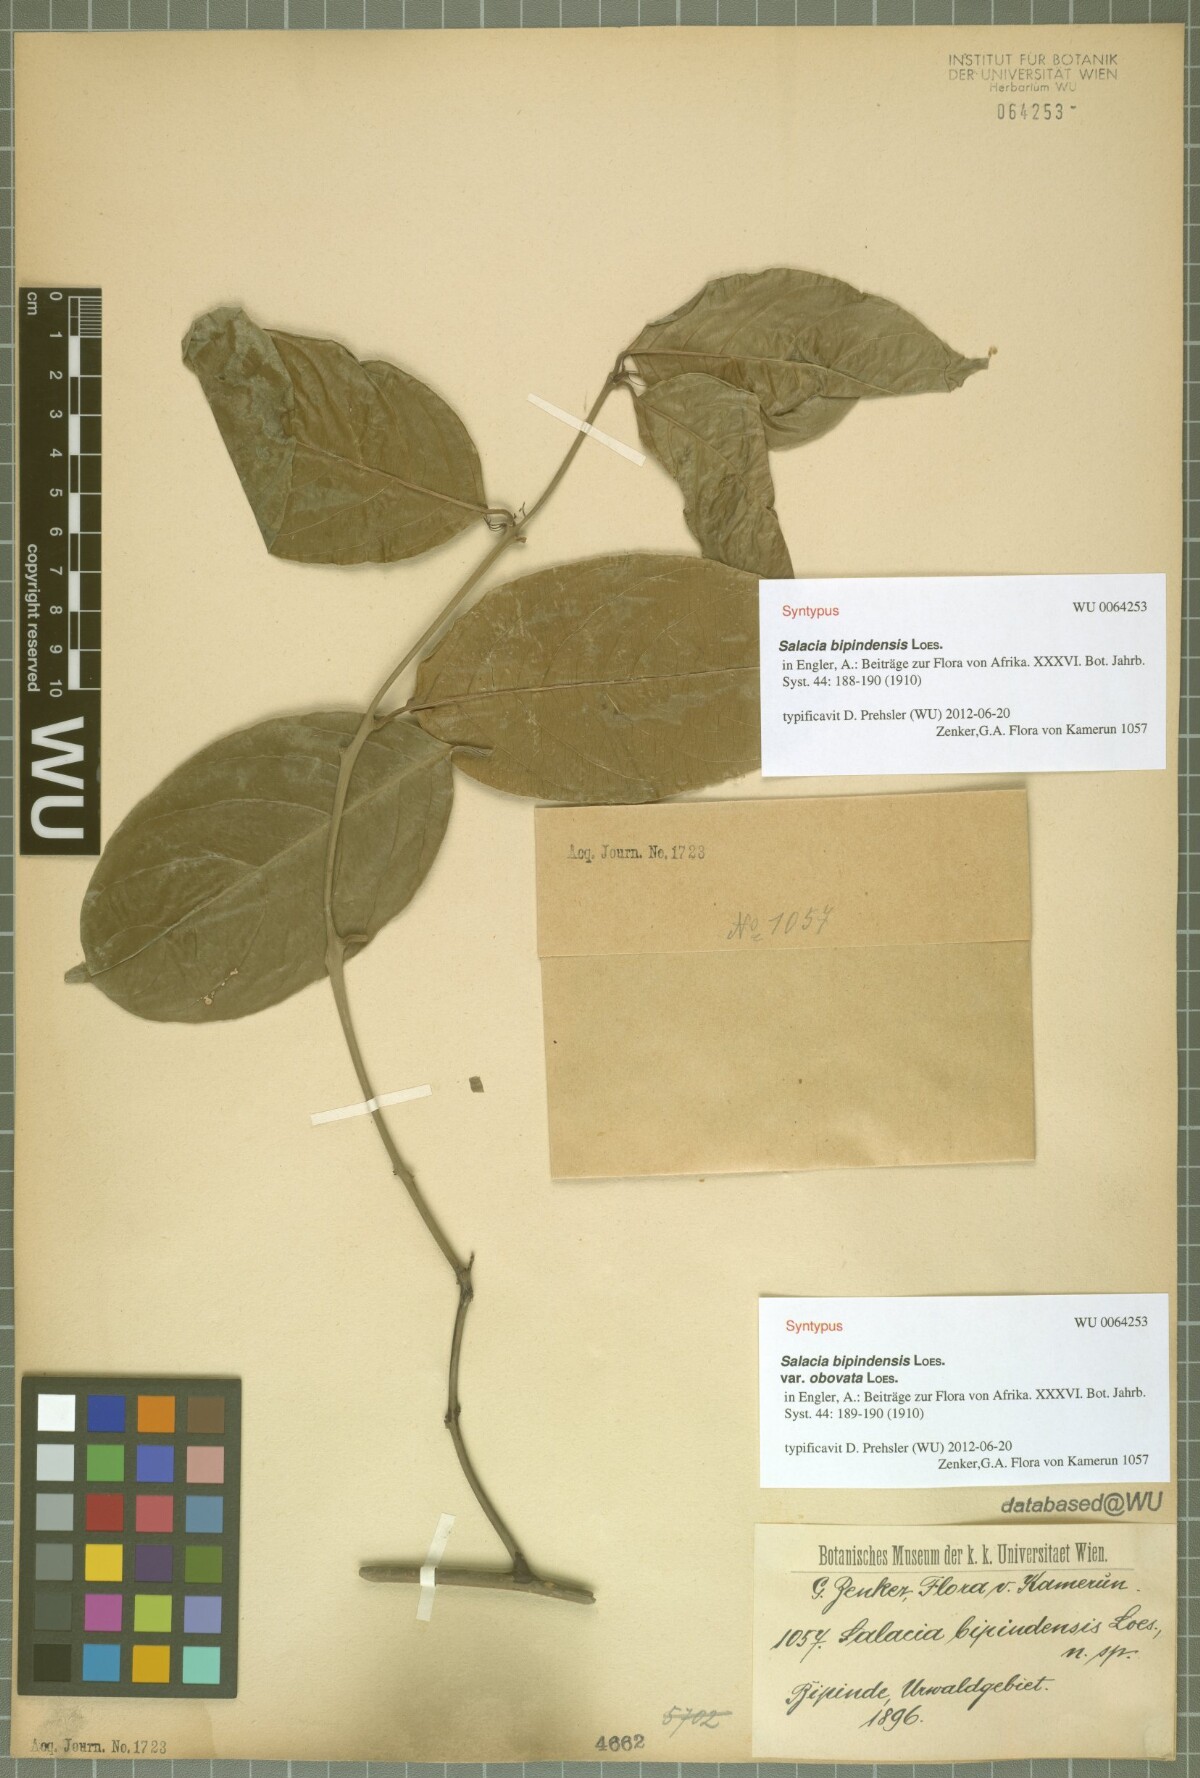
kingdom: Plantae
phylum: Tracheophyta
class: Magnoliopsida
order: Celastrales
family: Celastraceae
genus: Salacia
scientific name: Salacia nitida
